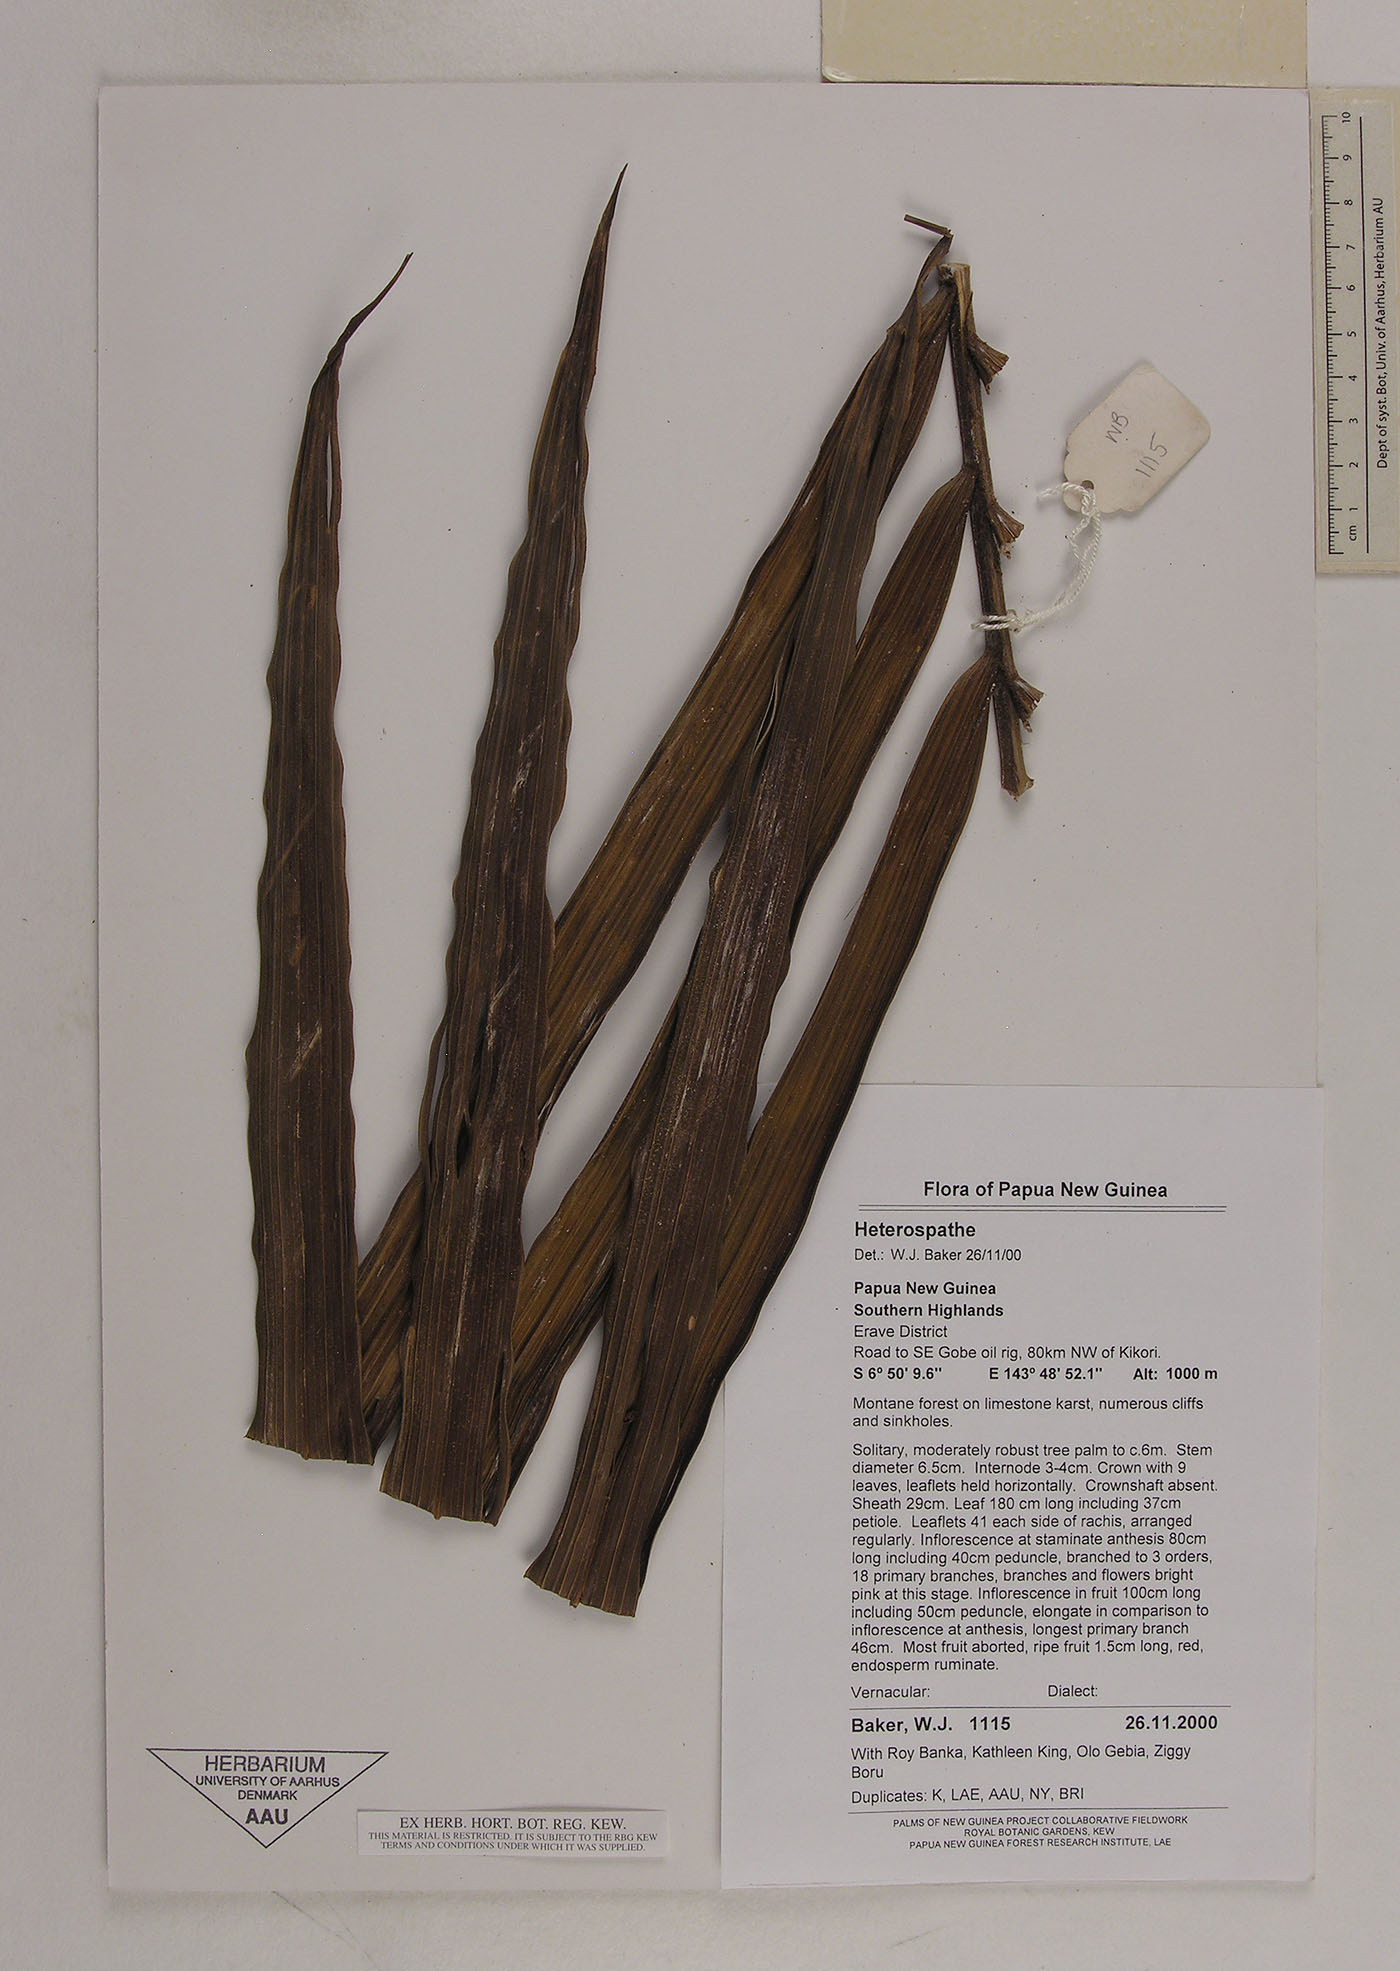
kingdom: Plantae
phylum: Tracheophyta
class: Liliopsida
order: Arecales
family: Arecaceae
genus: Heterospathe
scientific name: Heterospathe
